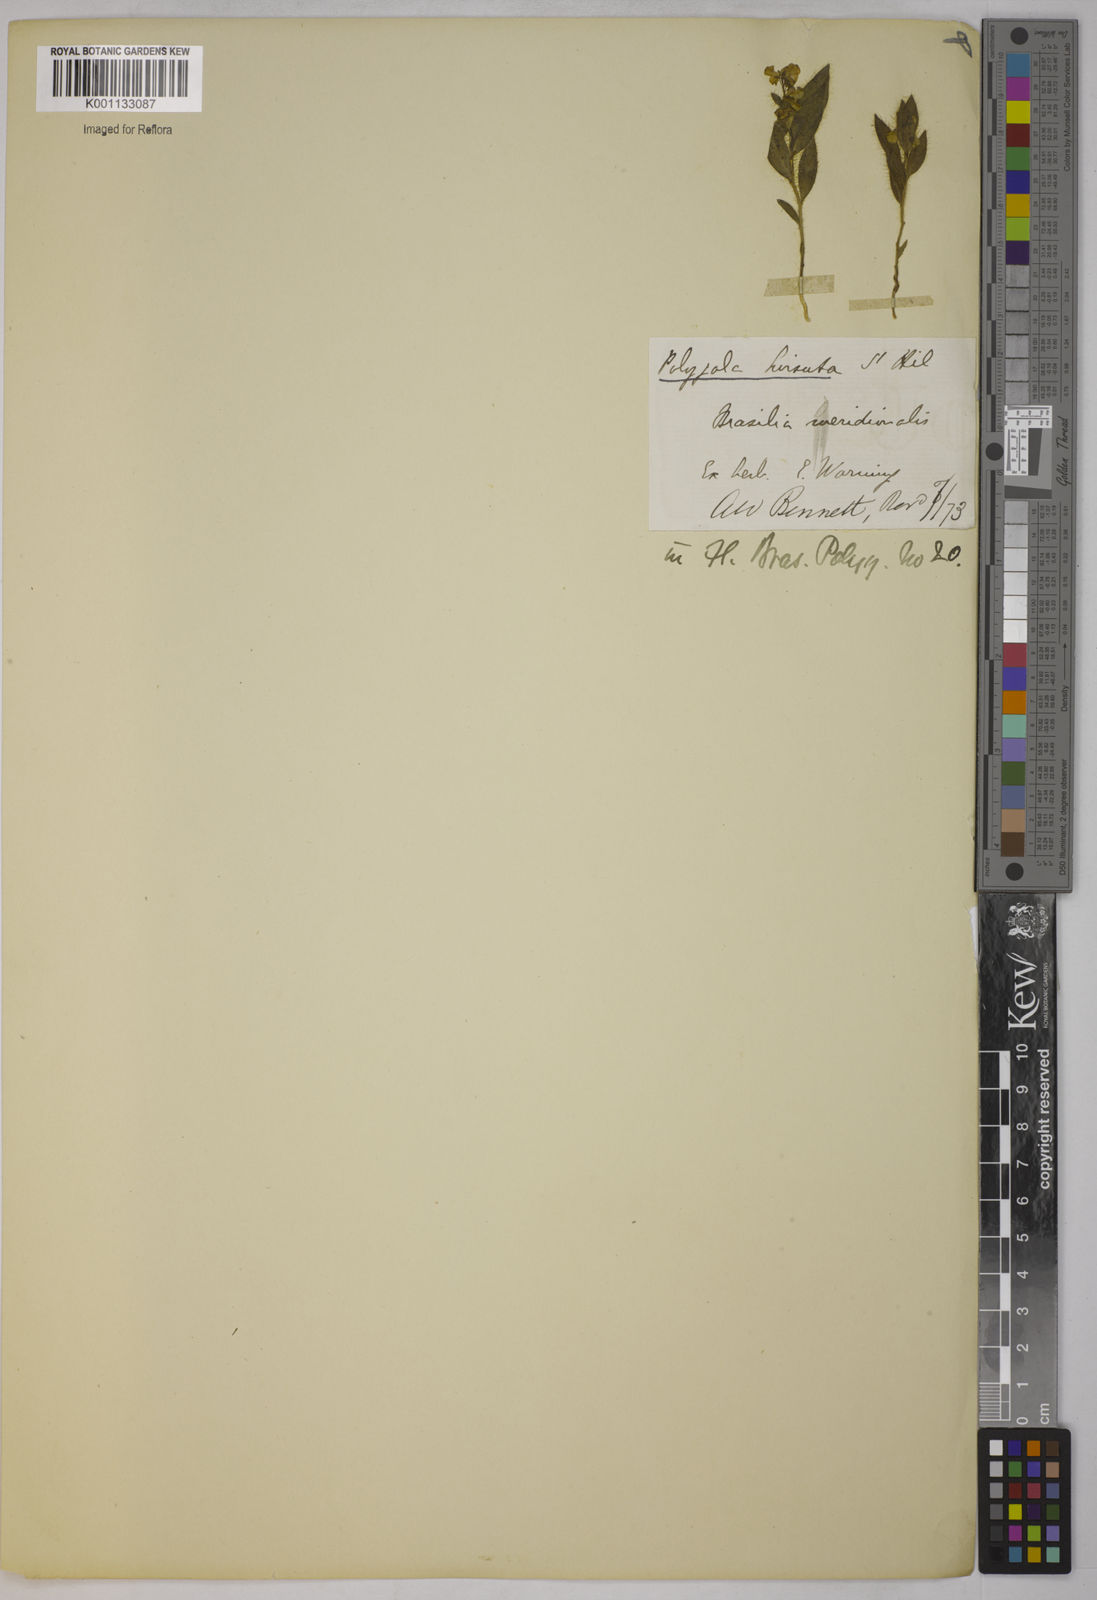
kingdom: Plantae
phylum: Tracheophyta
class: Magnoliopsida
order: Fabales
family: Polygalaceae
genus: Asemeia
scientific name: Asemeia hirsuta
